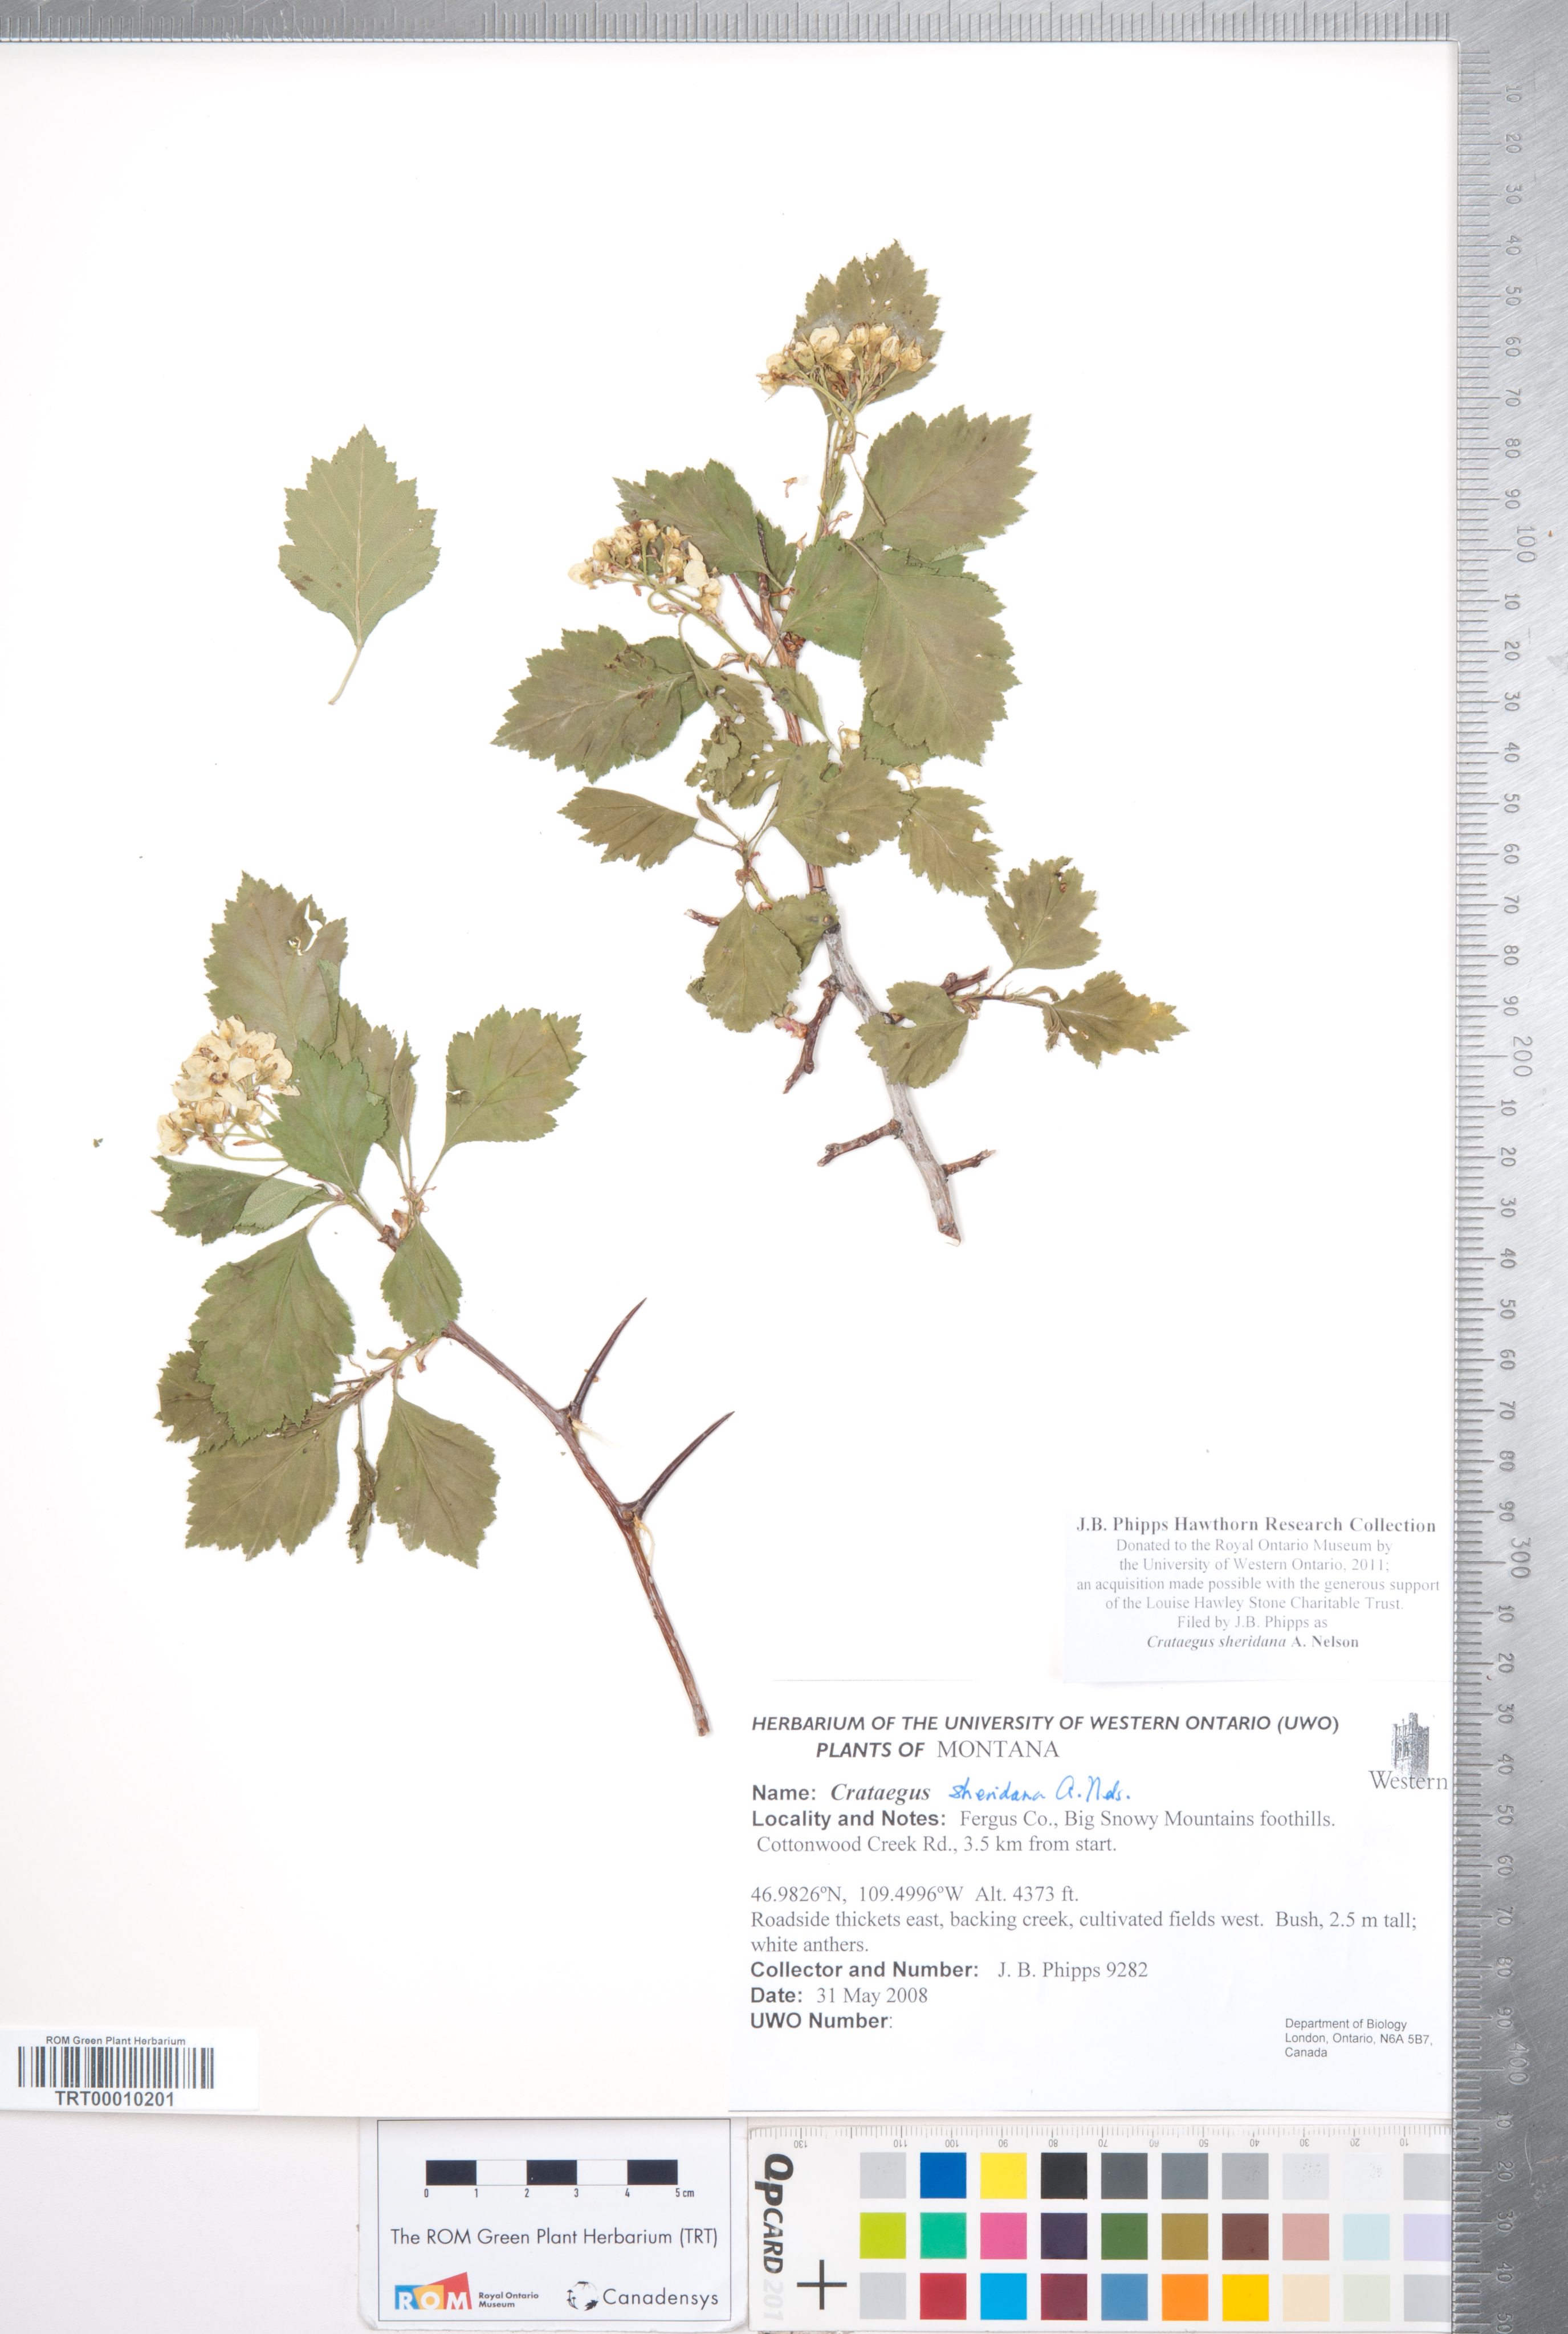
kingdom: Plantae
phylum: Tracheophyta
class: Magnoliopsida
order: Rosales
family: Rosaceae
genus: Crataegus
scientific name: Crataegus chrysocarpa
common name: Fire-berry hawthorn
